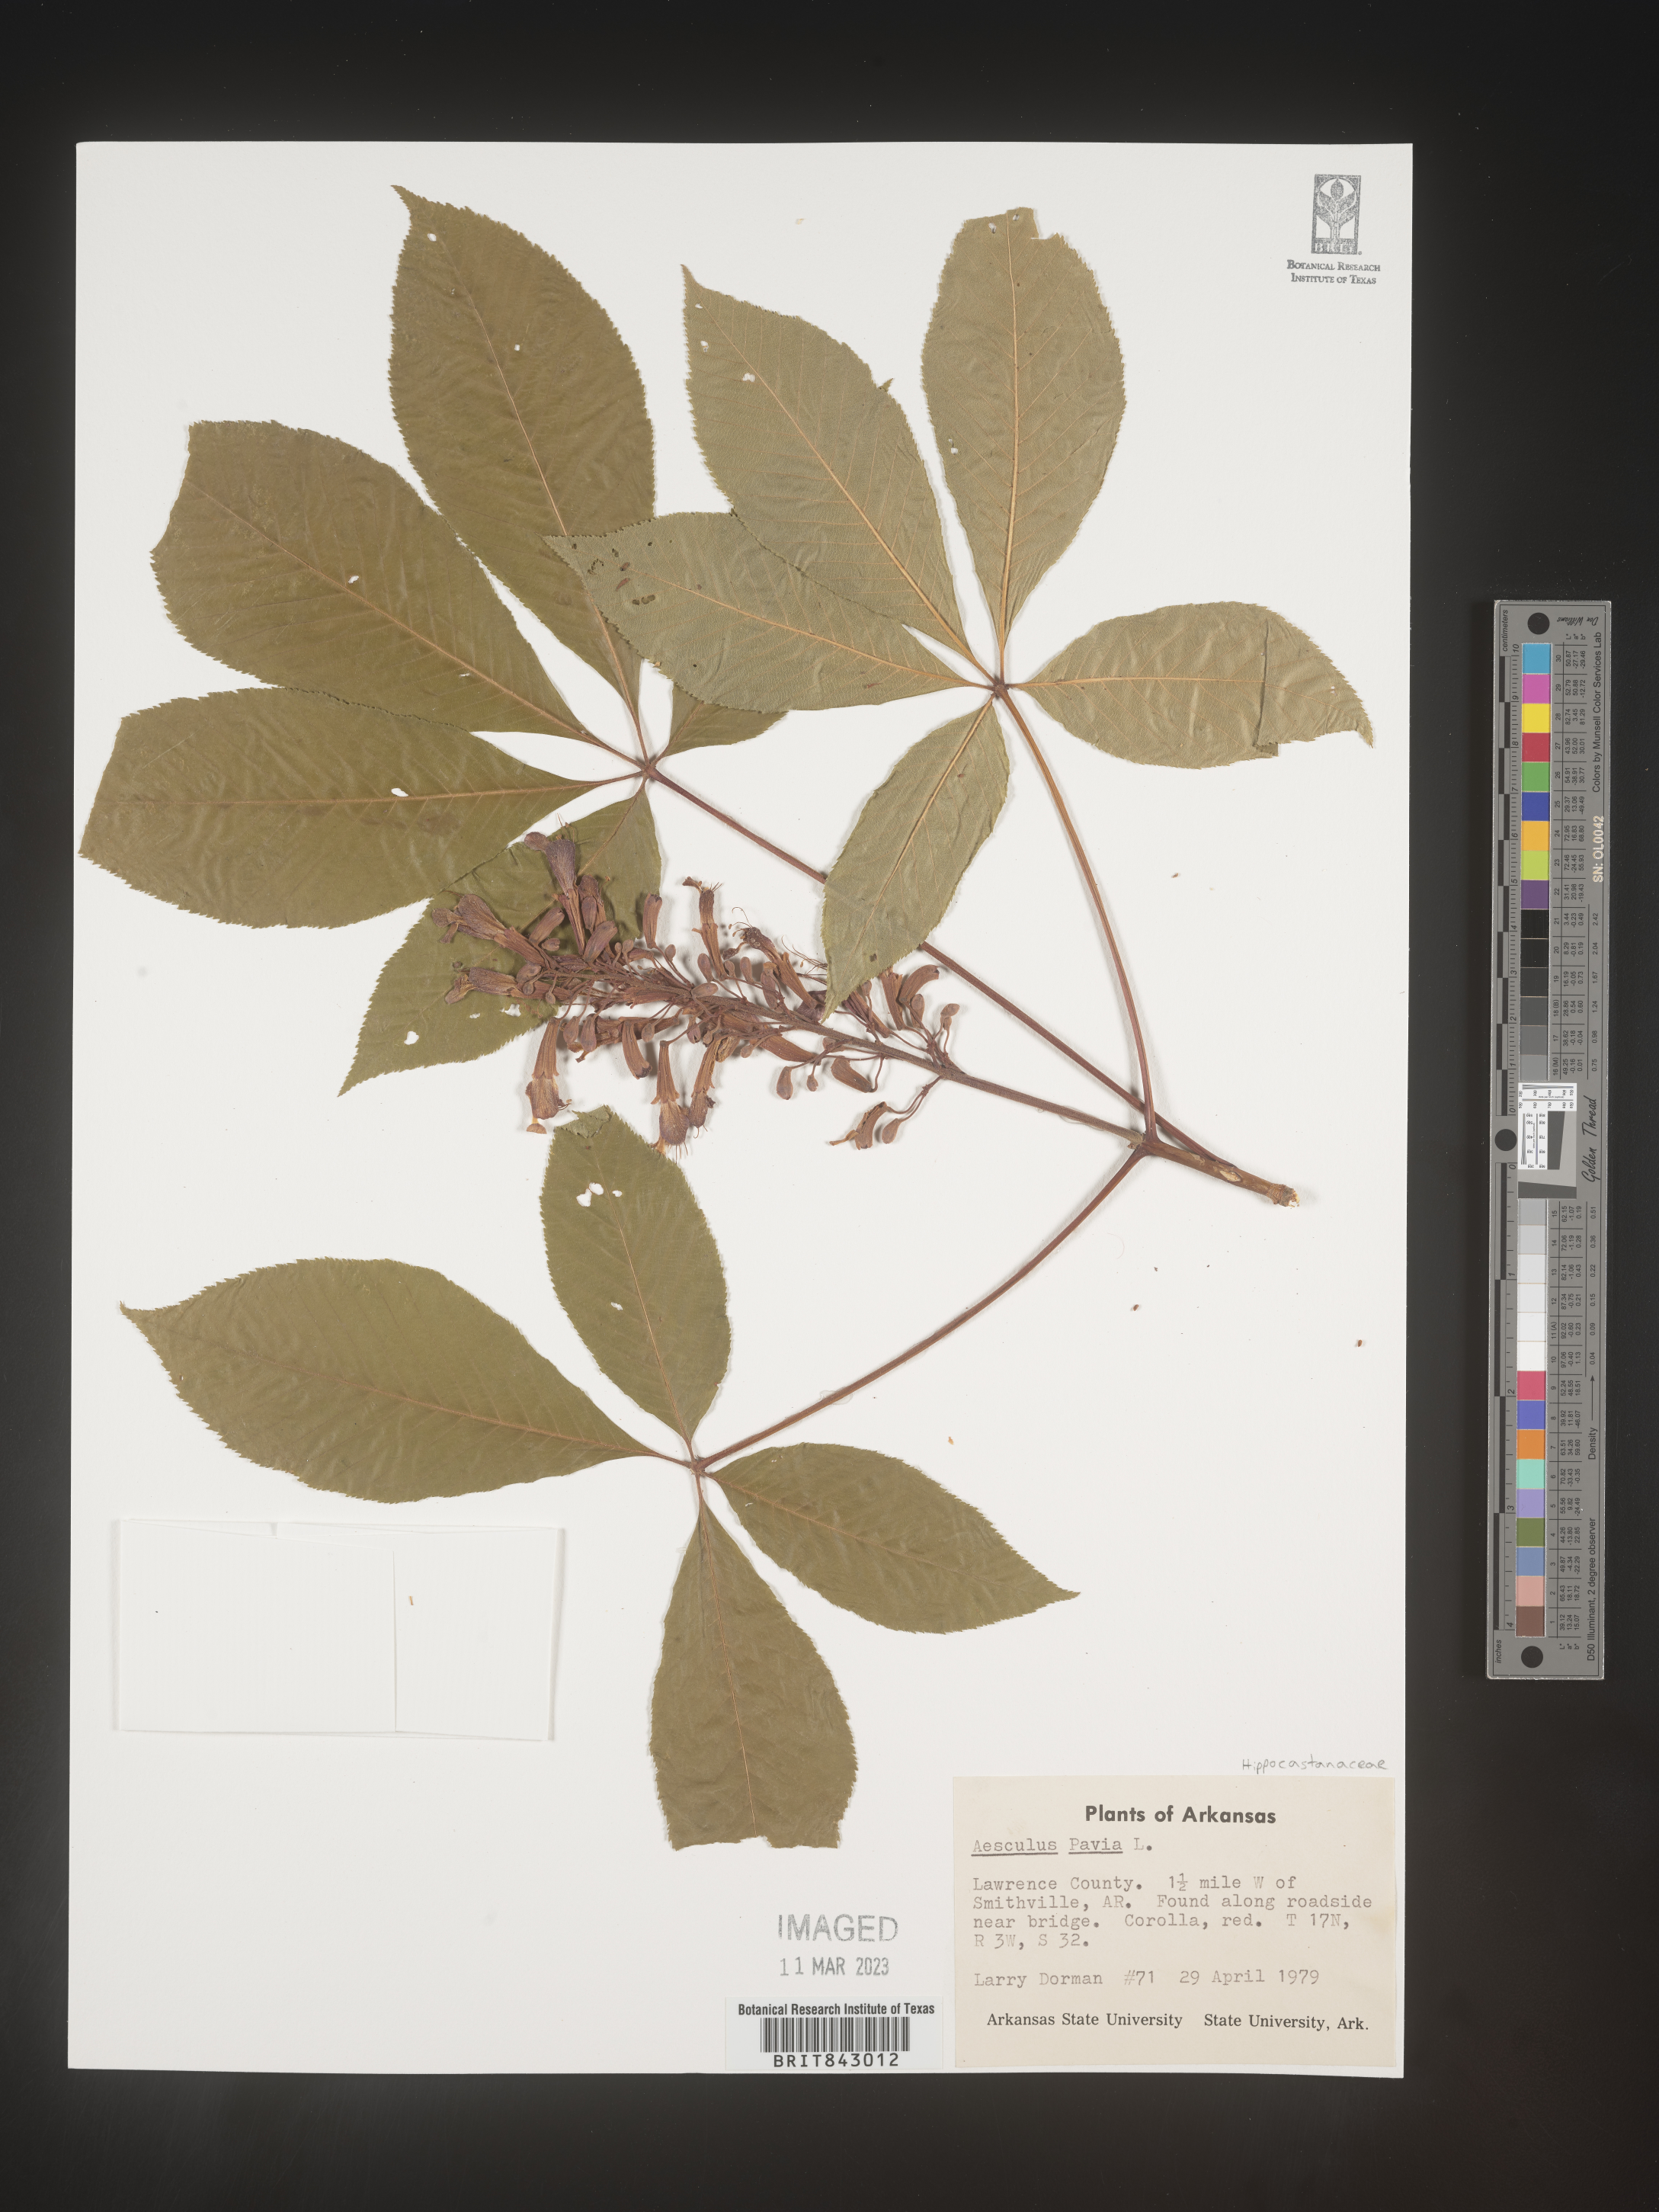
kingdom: Plantae
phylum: Tracheophyta
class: Magnoliopsida
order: Sapindales
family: Sapindaceae
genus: Aesculus
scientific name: Aesculus pavia
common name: Red buckeye
